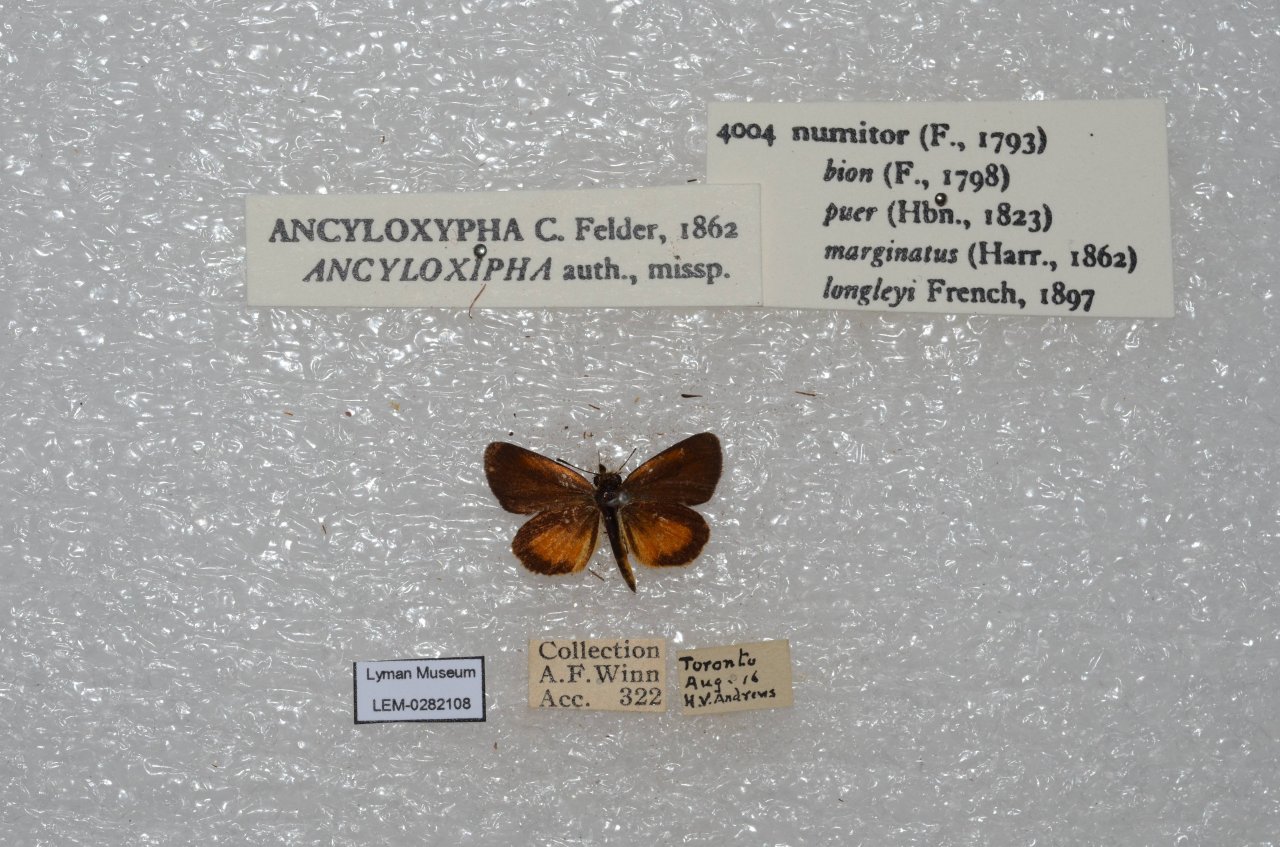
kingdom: Animalia
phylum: Arthropoda
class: Insecta
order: Lepidoptera
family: Hesperiidae
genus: Ancyloxypha
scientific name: Ancyloxypha numitor
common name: Least Skipper
